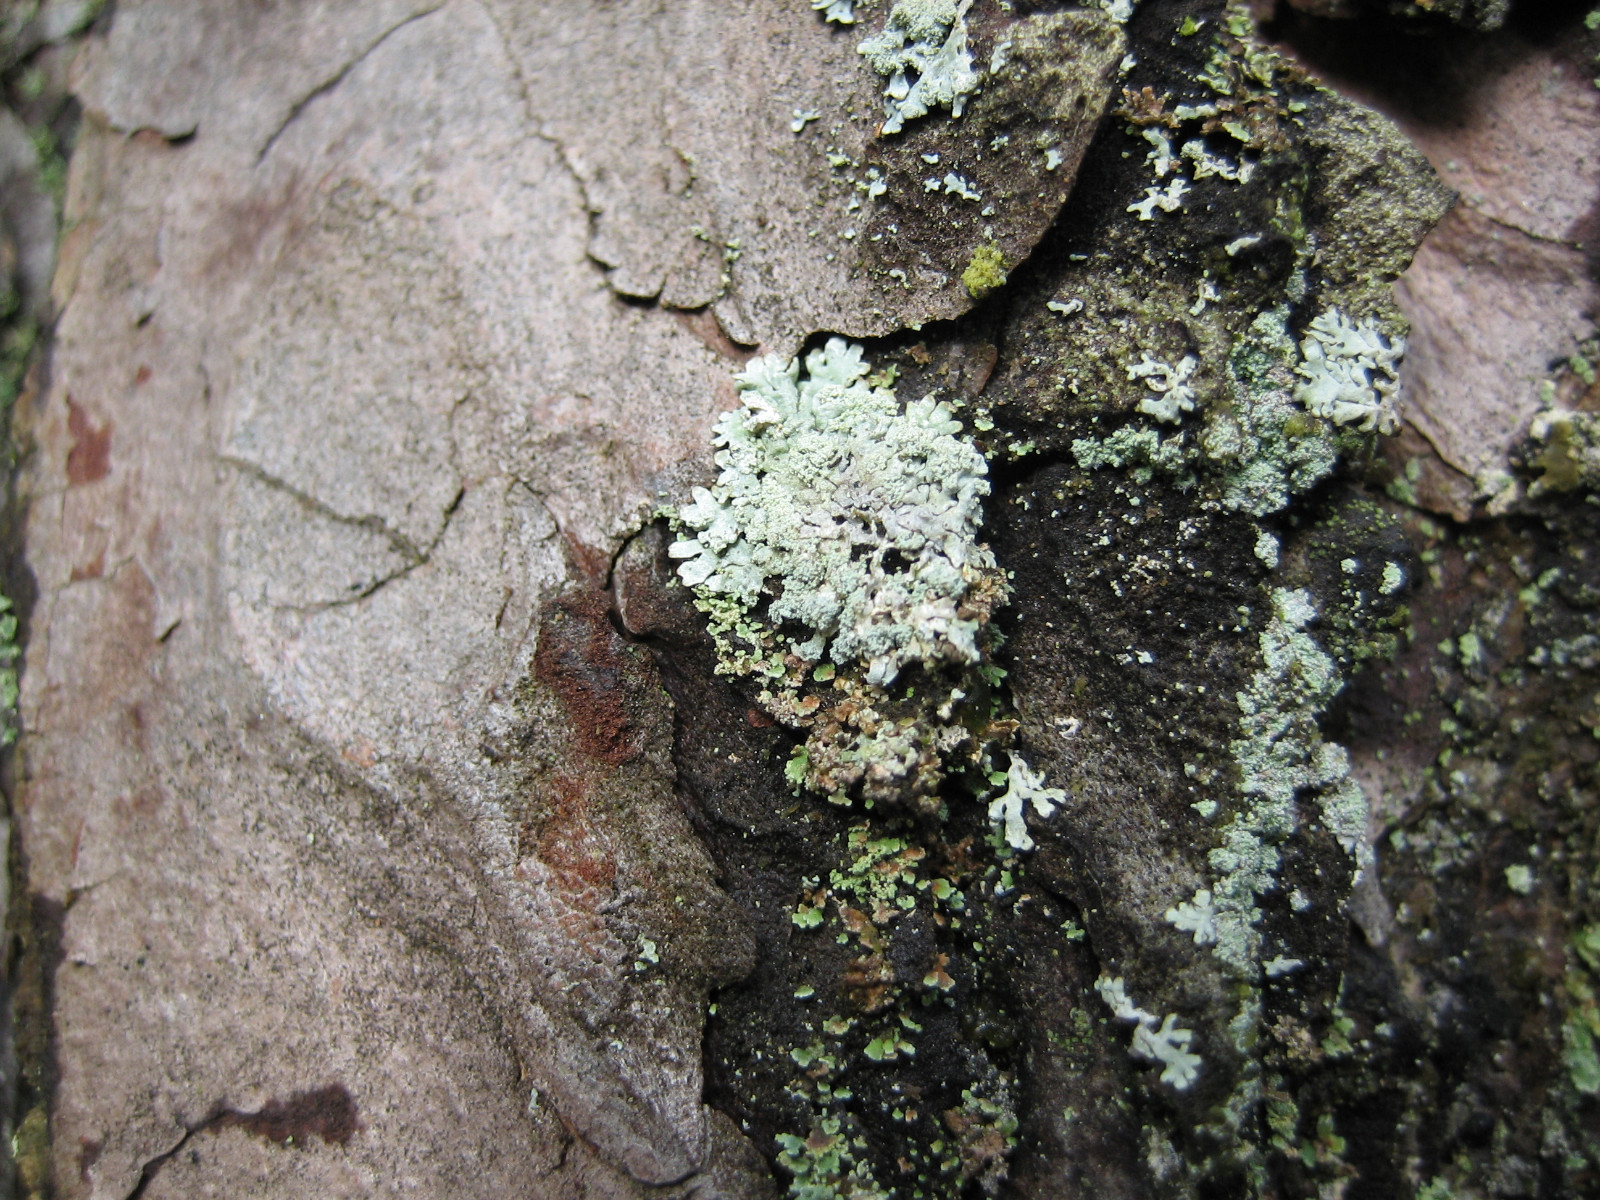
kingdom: Fungi
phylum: Ascomycota
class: Lecanoromycetes
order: Lecanorales
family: Parmeliaceae
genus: Parmeliopsis
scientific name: Parmeliopsis hyperopta
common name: grå stolpelav
